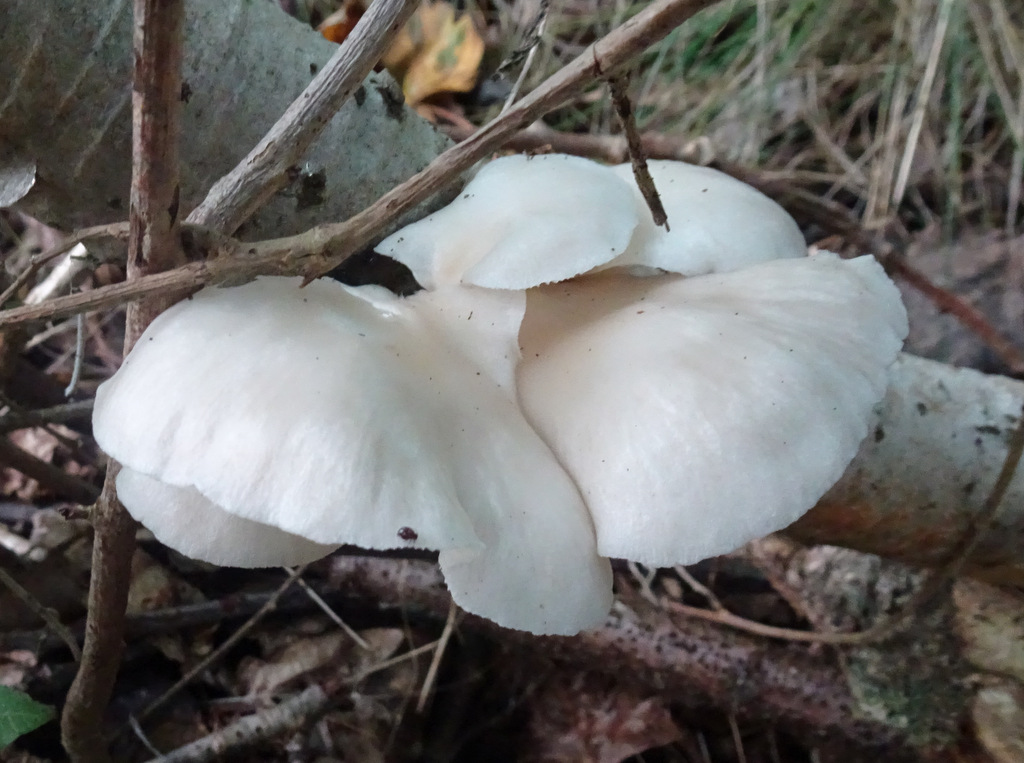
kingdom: Fungi
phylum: Basidiomycota
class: Agaricomycetes
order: Agaricales
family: Pleurotaceae
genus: Pleurotus
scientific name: Pleurotus pulmonarius
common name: sommer-østershat
